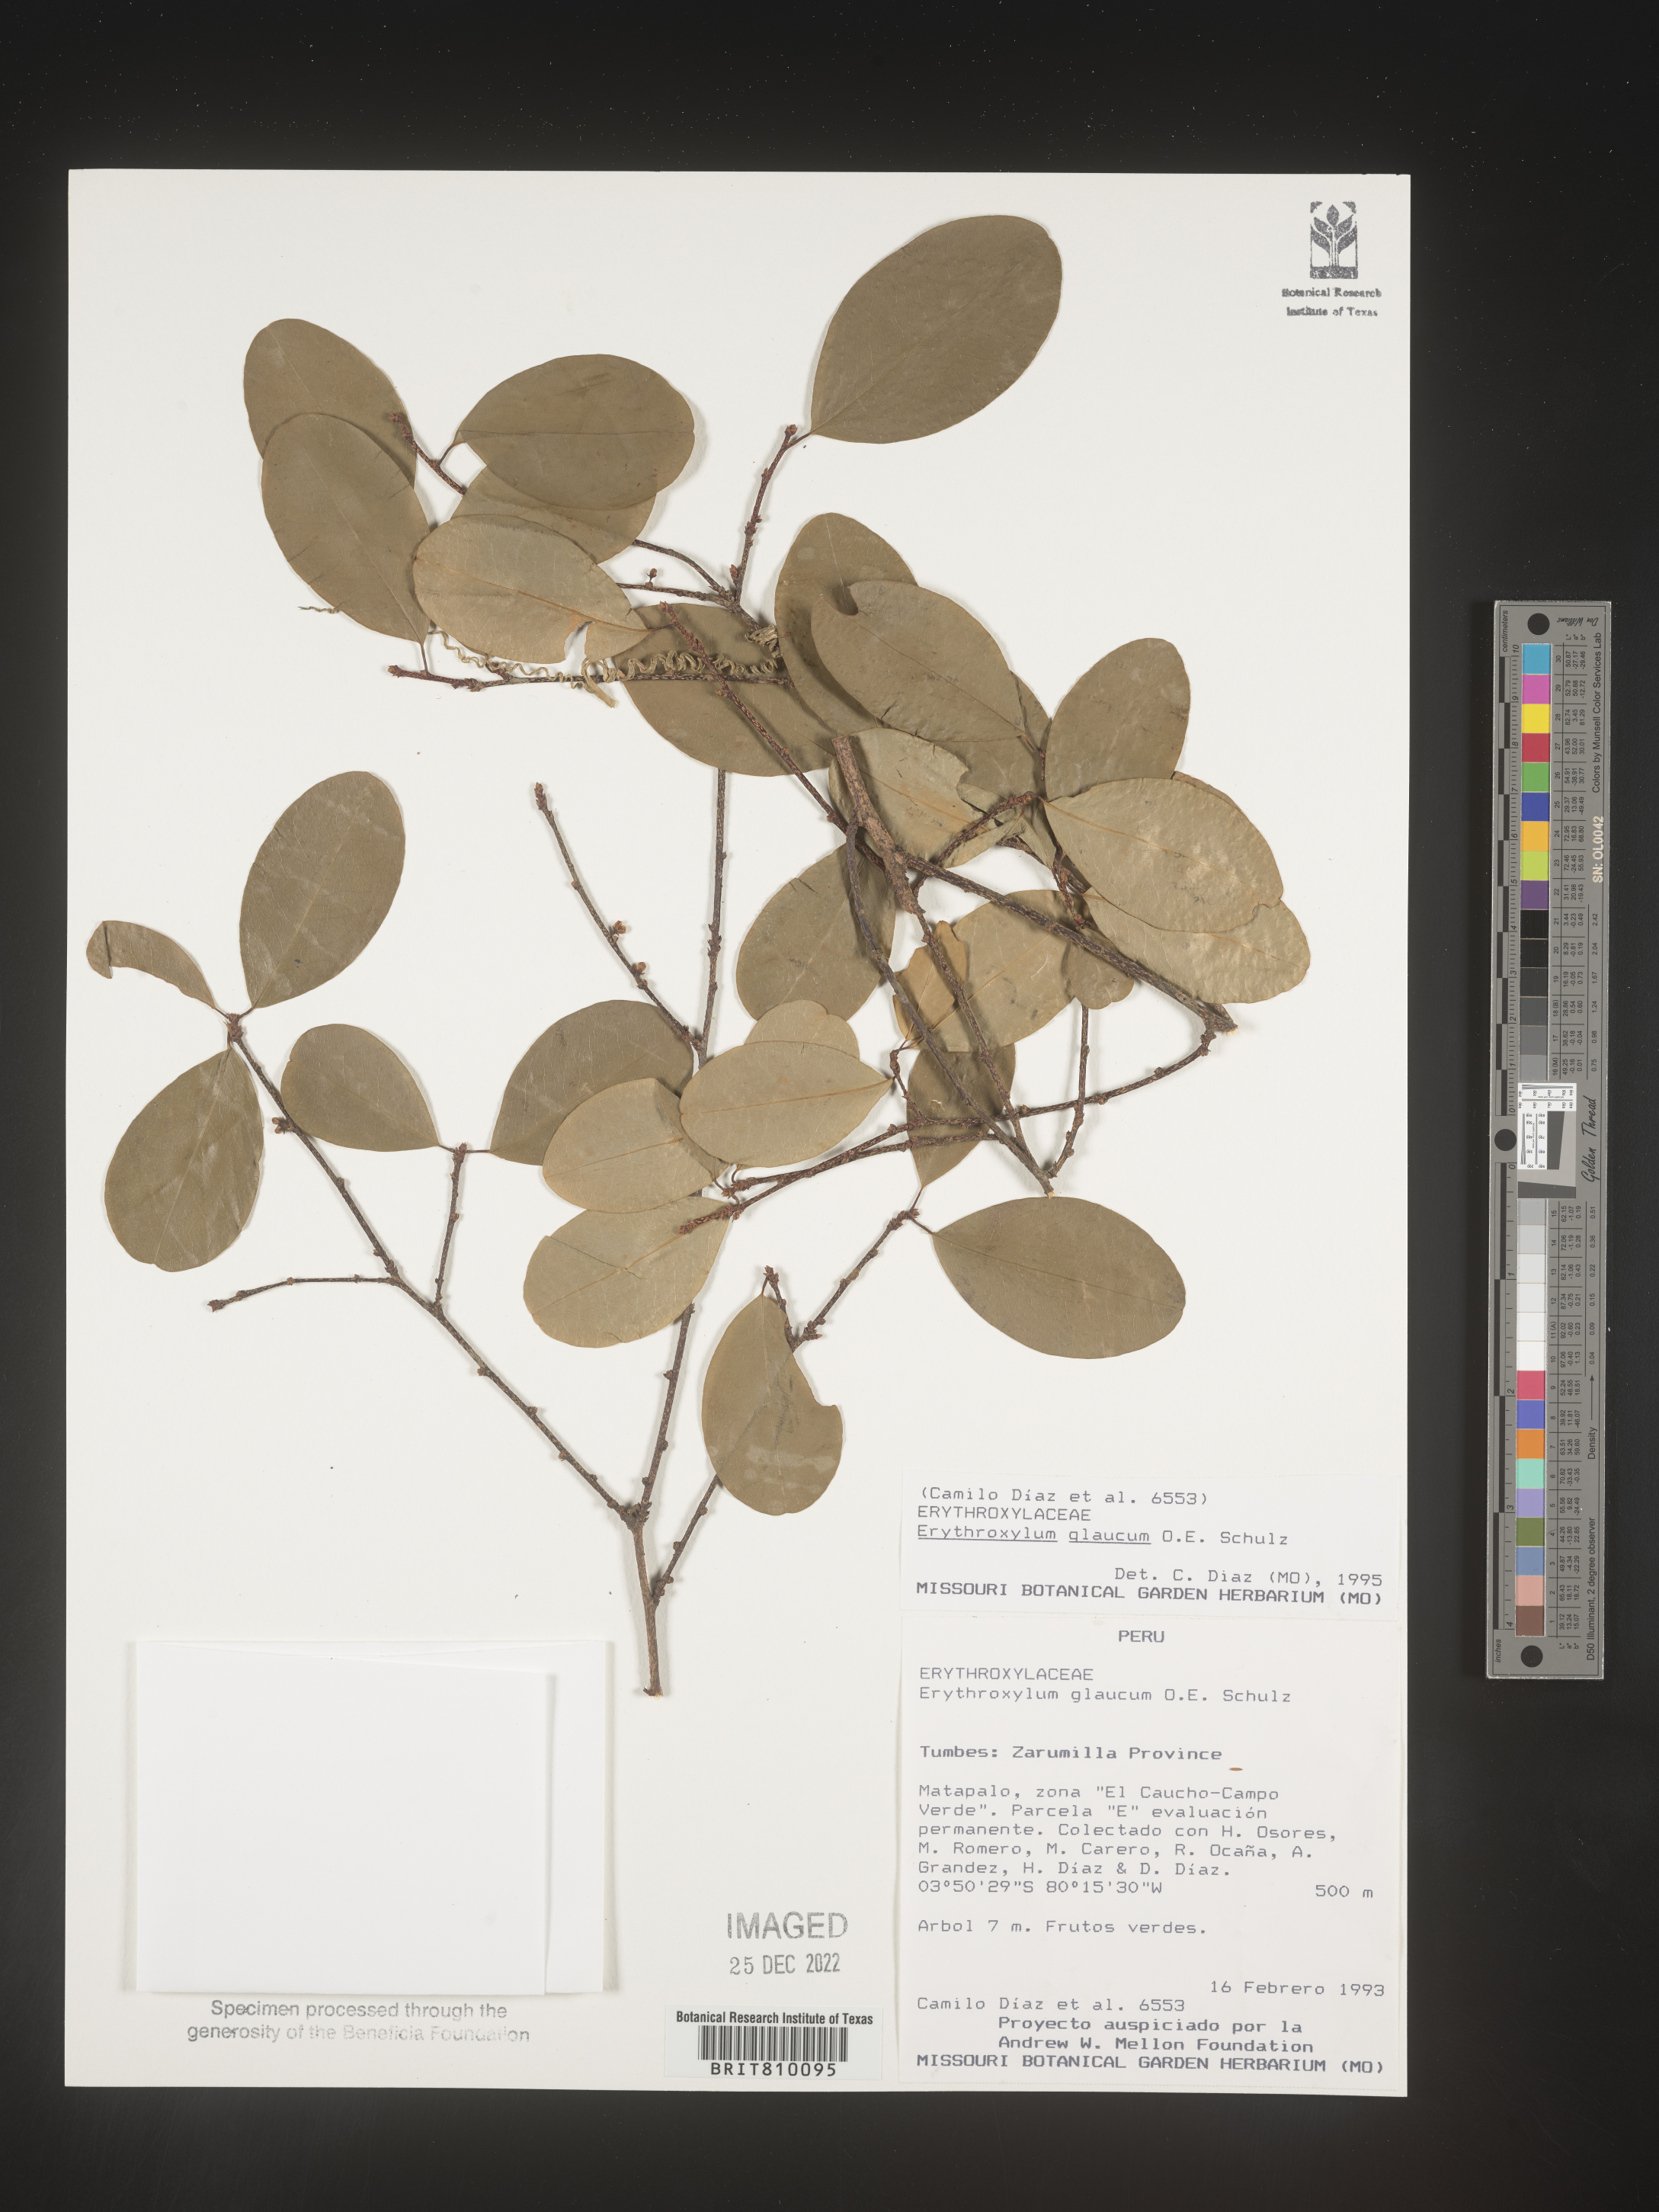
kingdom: Plantae
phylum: Tracheophyta
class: Magnoliopsida
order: Malpighiales
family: Erythroxylaceae
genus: Erythroxylum
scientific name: Erythroxylum
